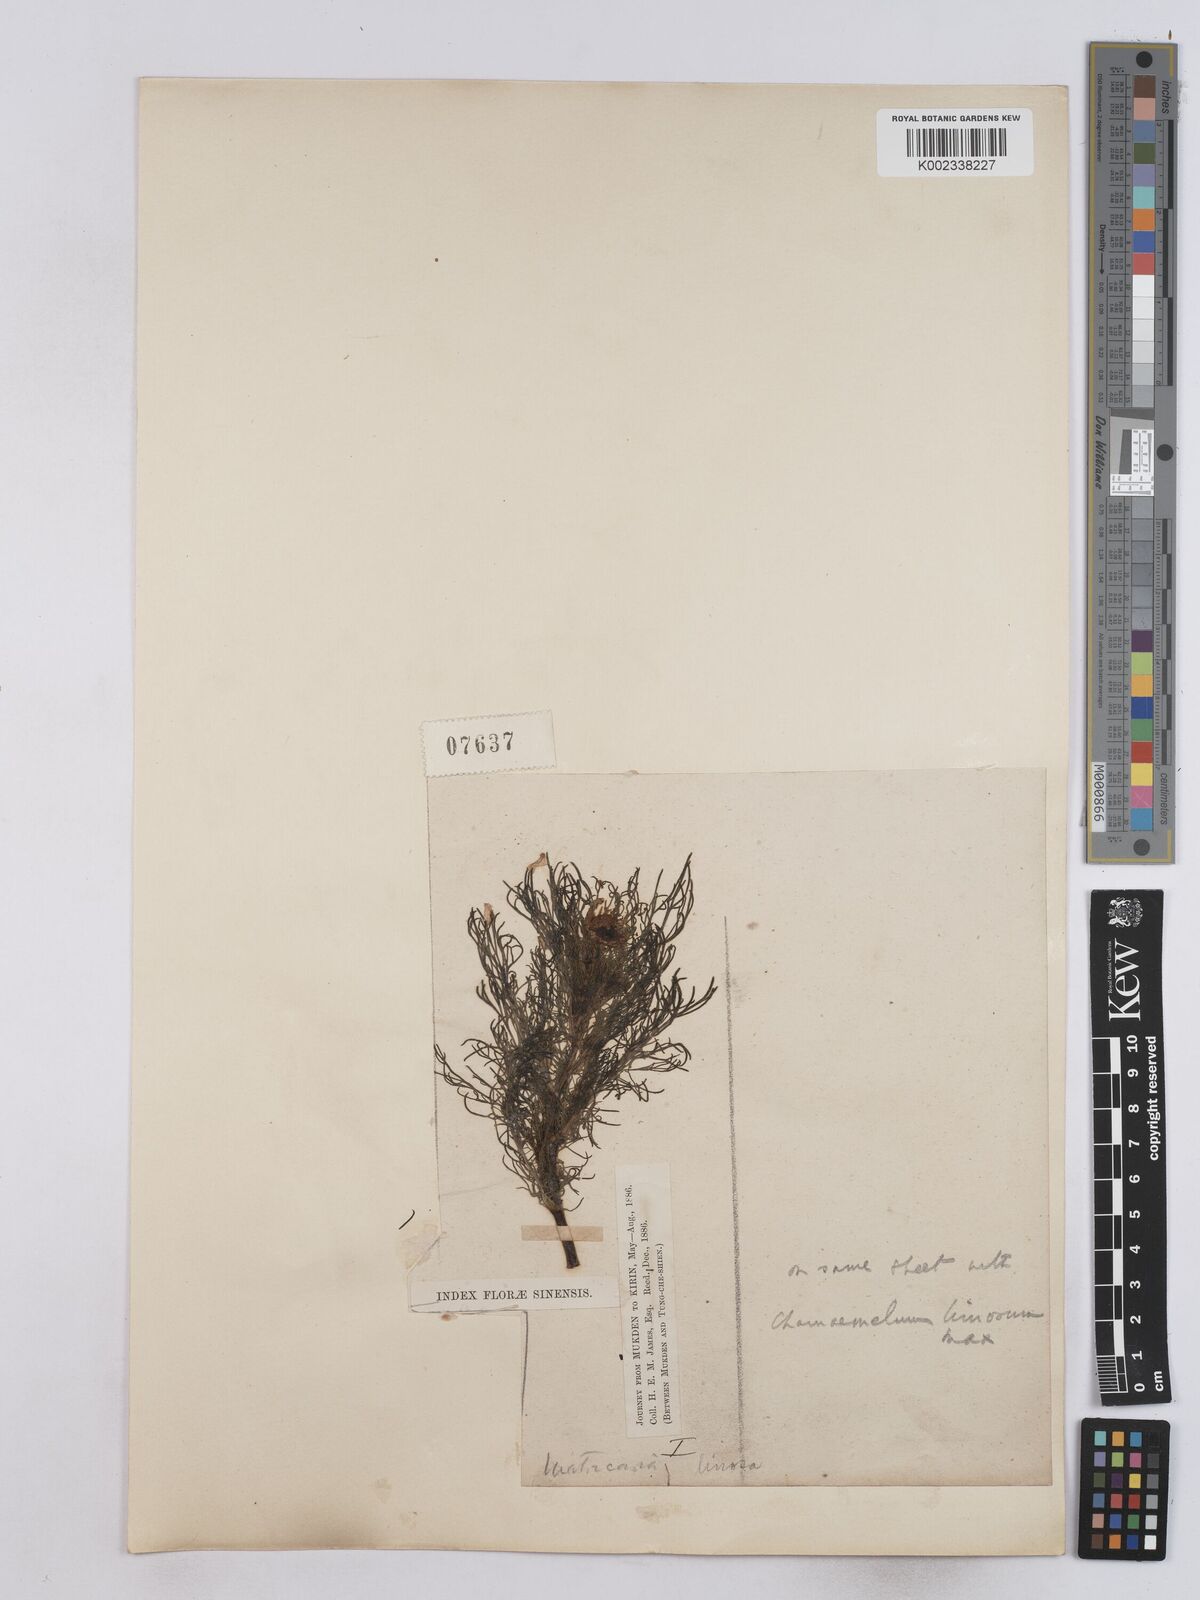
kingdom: Plantae
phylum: Tracheophyta
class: Magnoliopsida
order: Asterales
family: Asteraceae
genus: Matricaria
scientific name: Matricaria chamomilla
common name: Scented mayweed
